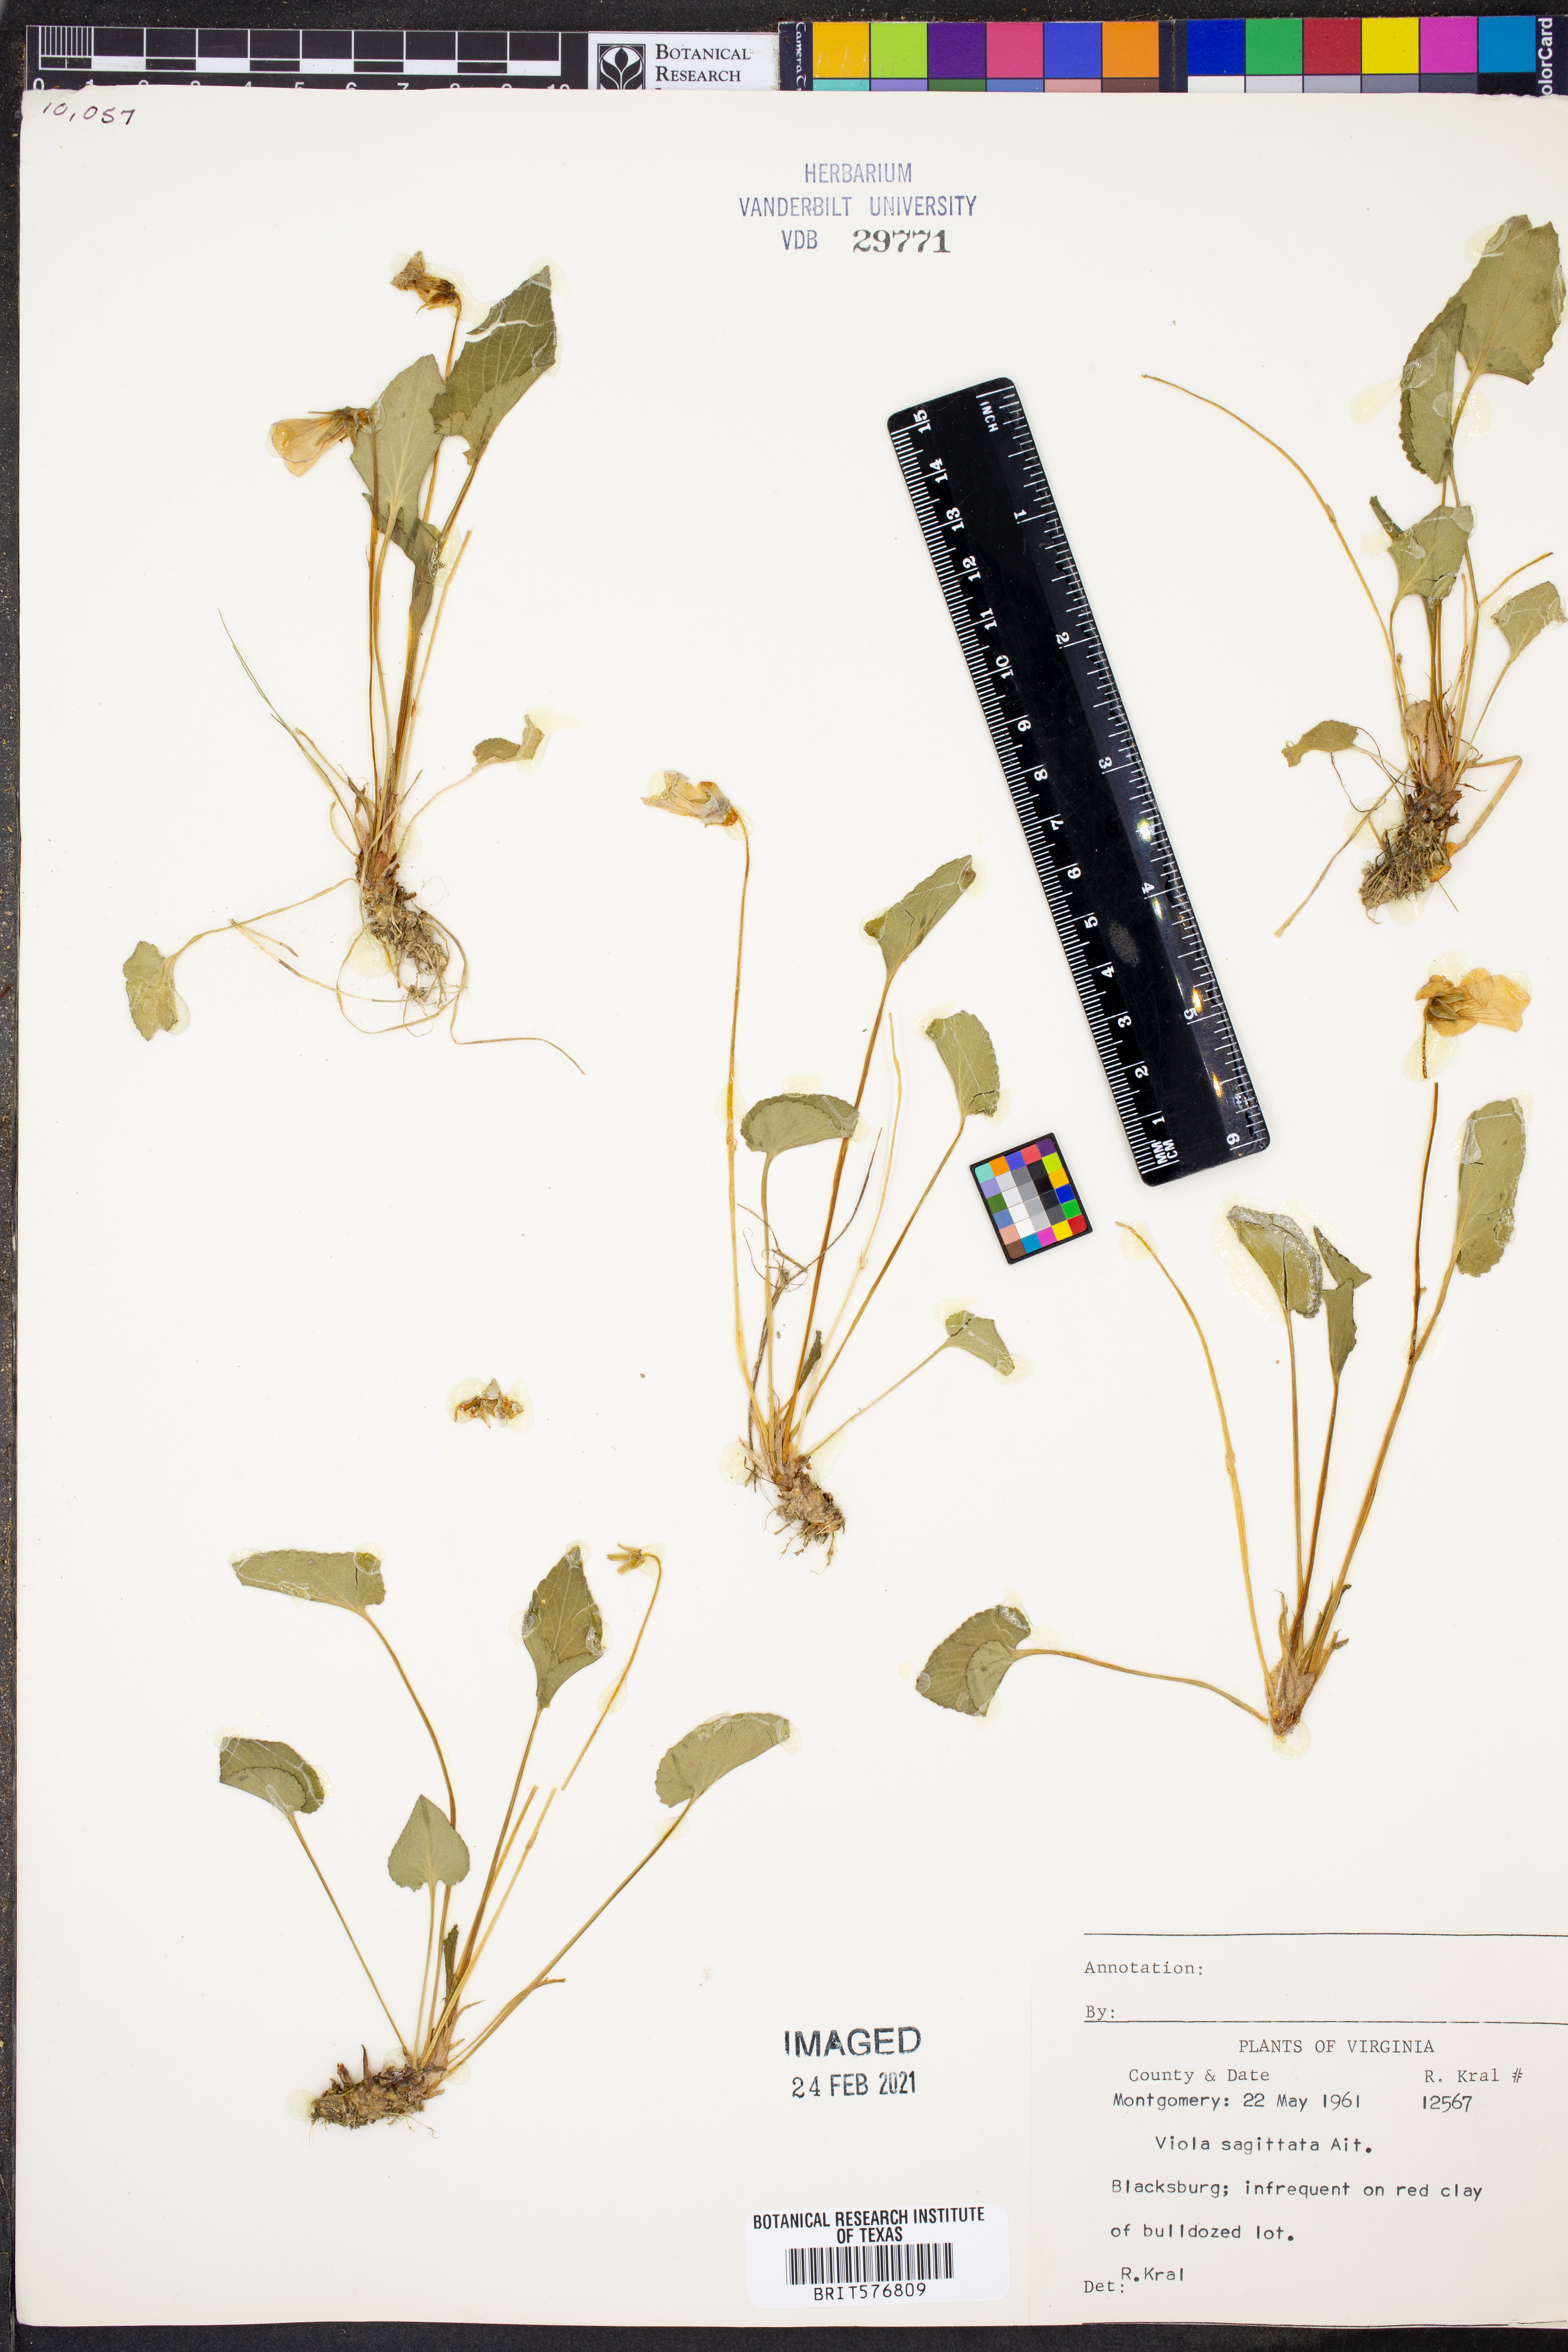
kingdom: Plantae
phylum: Tracheophyta
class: Magnoliopsida
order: Malpighiales
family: Violaceae
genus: Viola
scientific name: Viola sagittata
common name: Arrowhead violet
